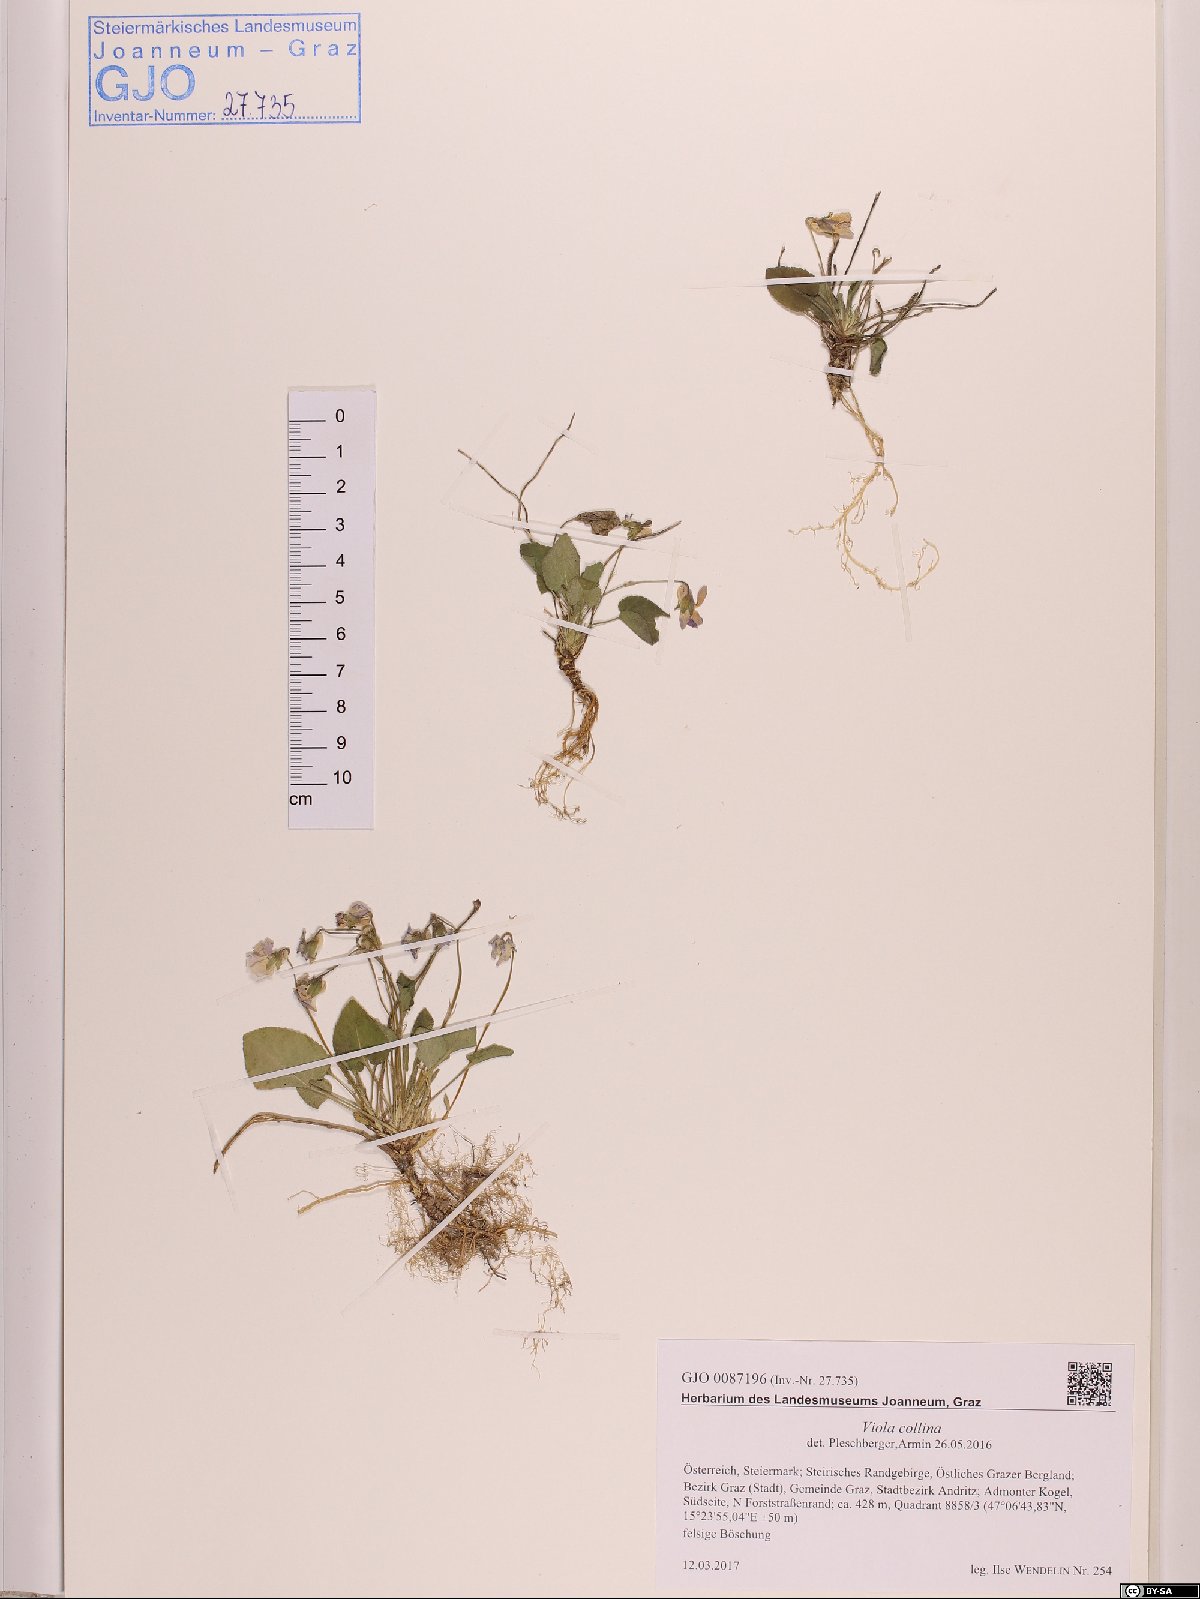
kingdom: Plantae
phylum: Tracheophyta
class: Magnoliopsida
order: Malpighiales
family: Violaceae
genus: Viola
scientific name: Viola collina
